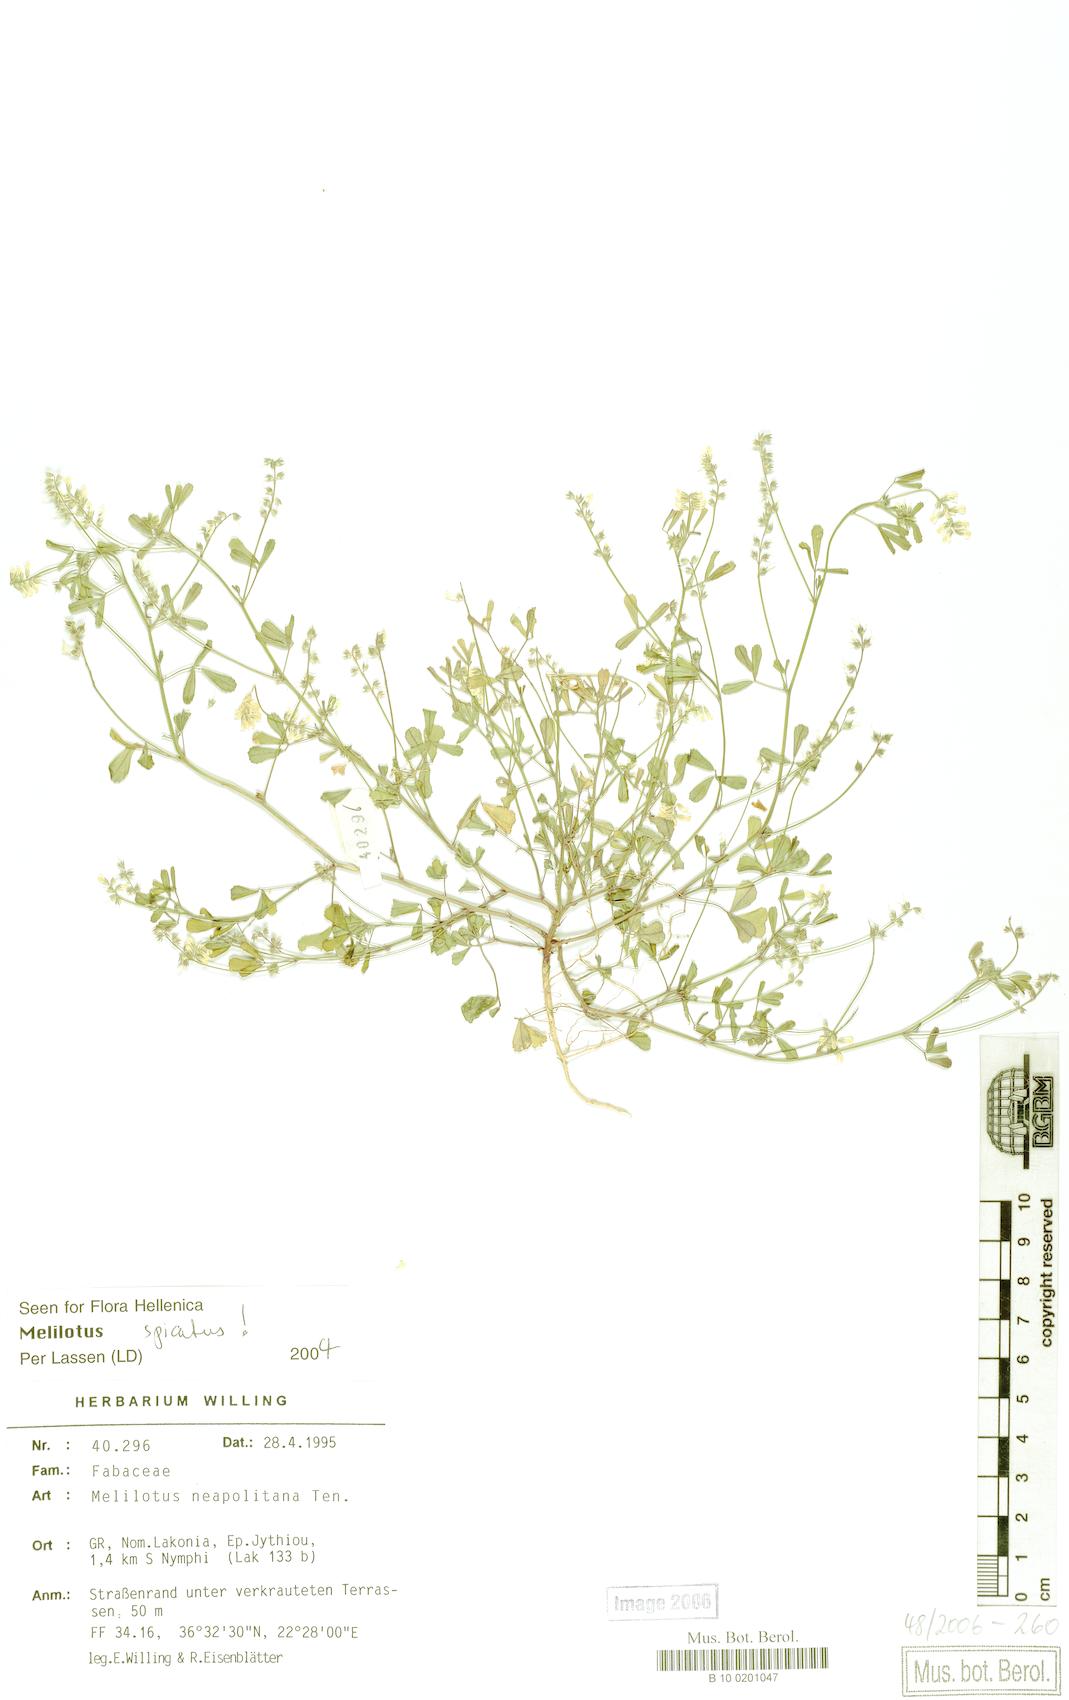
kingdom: Plantae
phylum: Tracheophyta
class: Magnoliopsida
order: Fabales
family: Fabaceae
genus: Melilotus
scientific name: Melilotus neapolitanus
